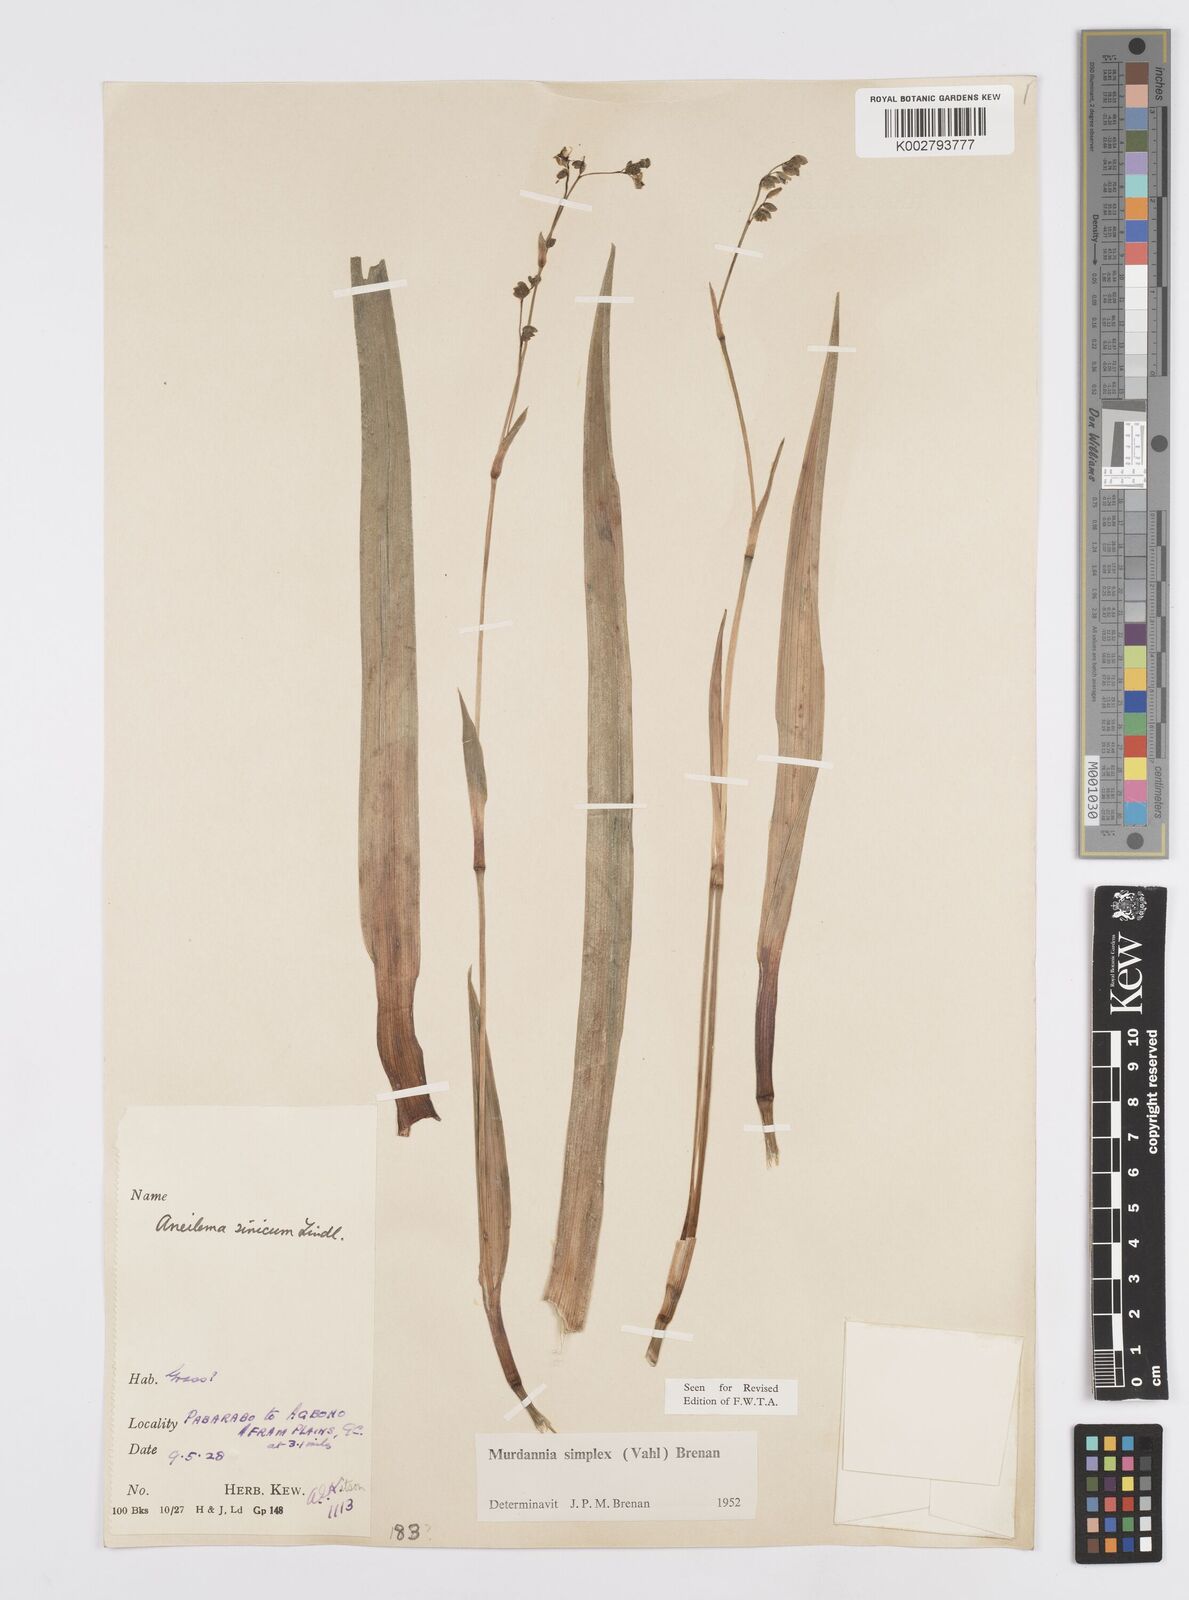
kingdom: Plantae
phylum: Tracheophyta
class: Liliopsida
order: Commelinales
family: Commelinaceae
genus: Murdannia
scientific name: Murdannia simplex
